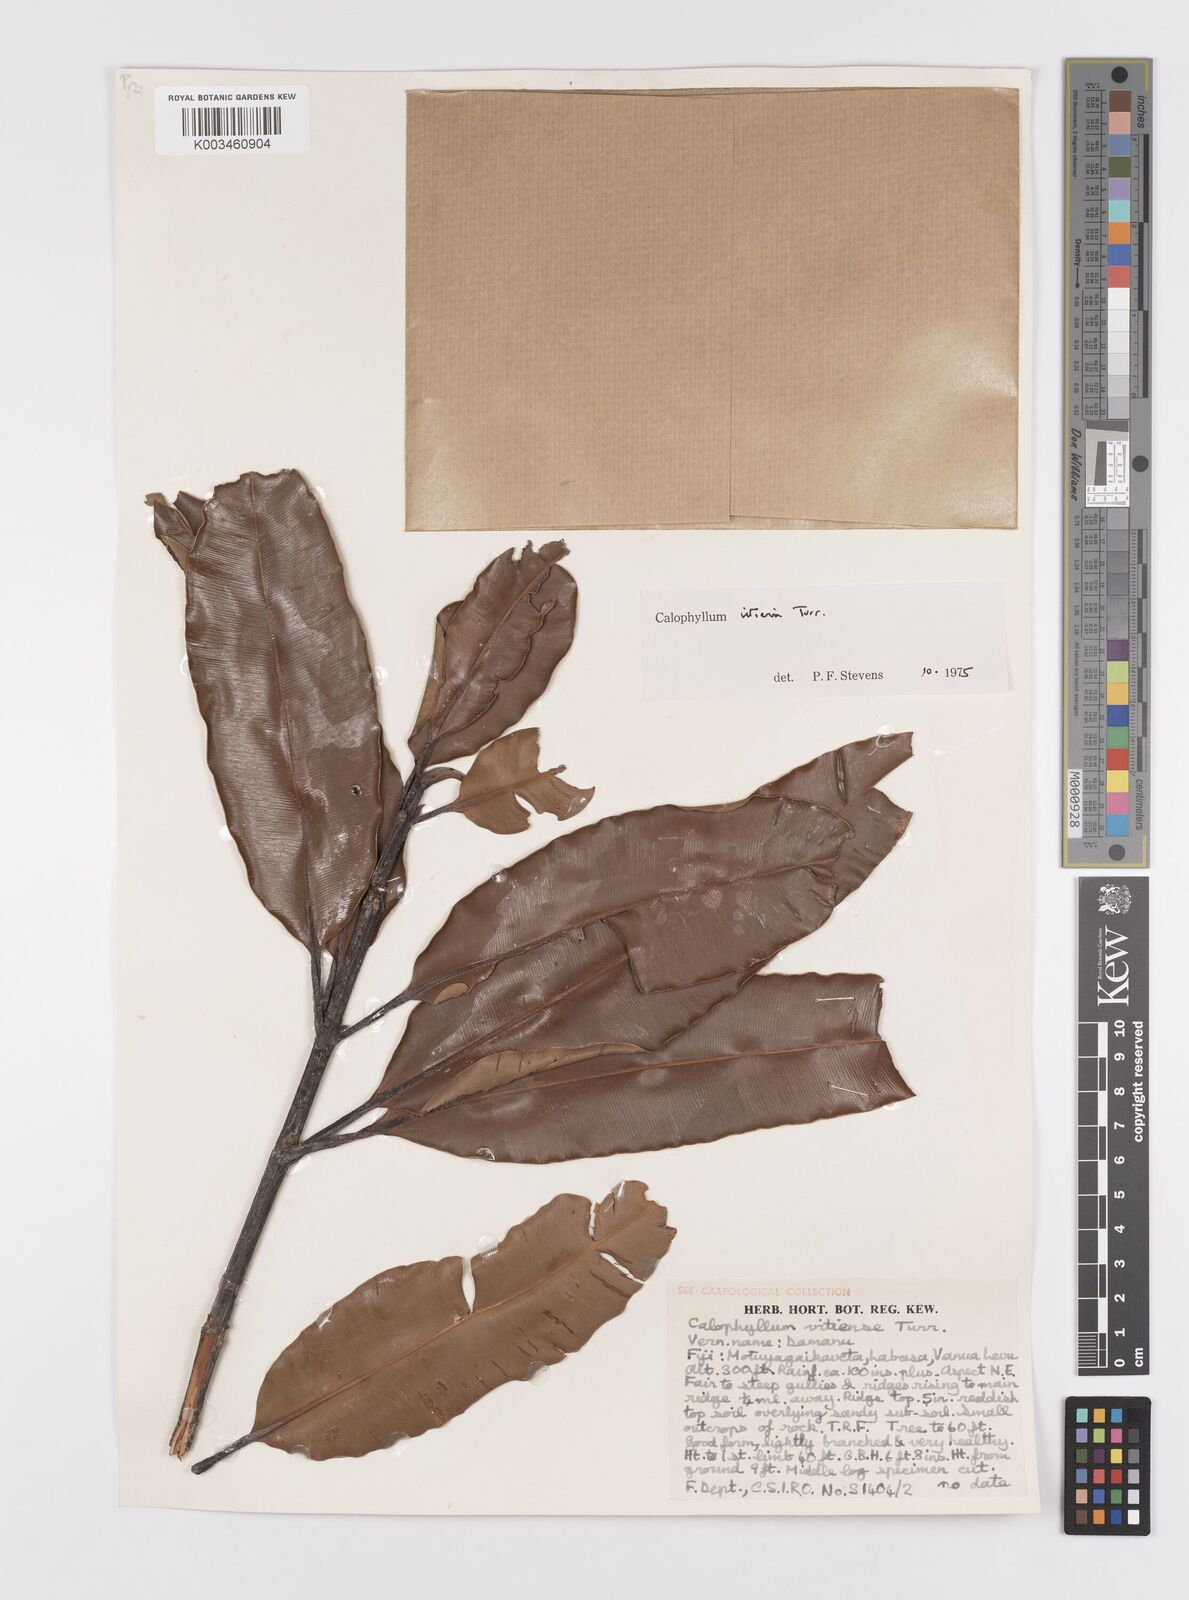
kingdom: Plantae
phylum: Tracheophyta
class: Magnoliopsida
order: Malpighiales
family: Calophyllaceae
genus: Calophyllum
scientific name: Calophyllum vitiense
